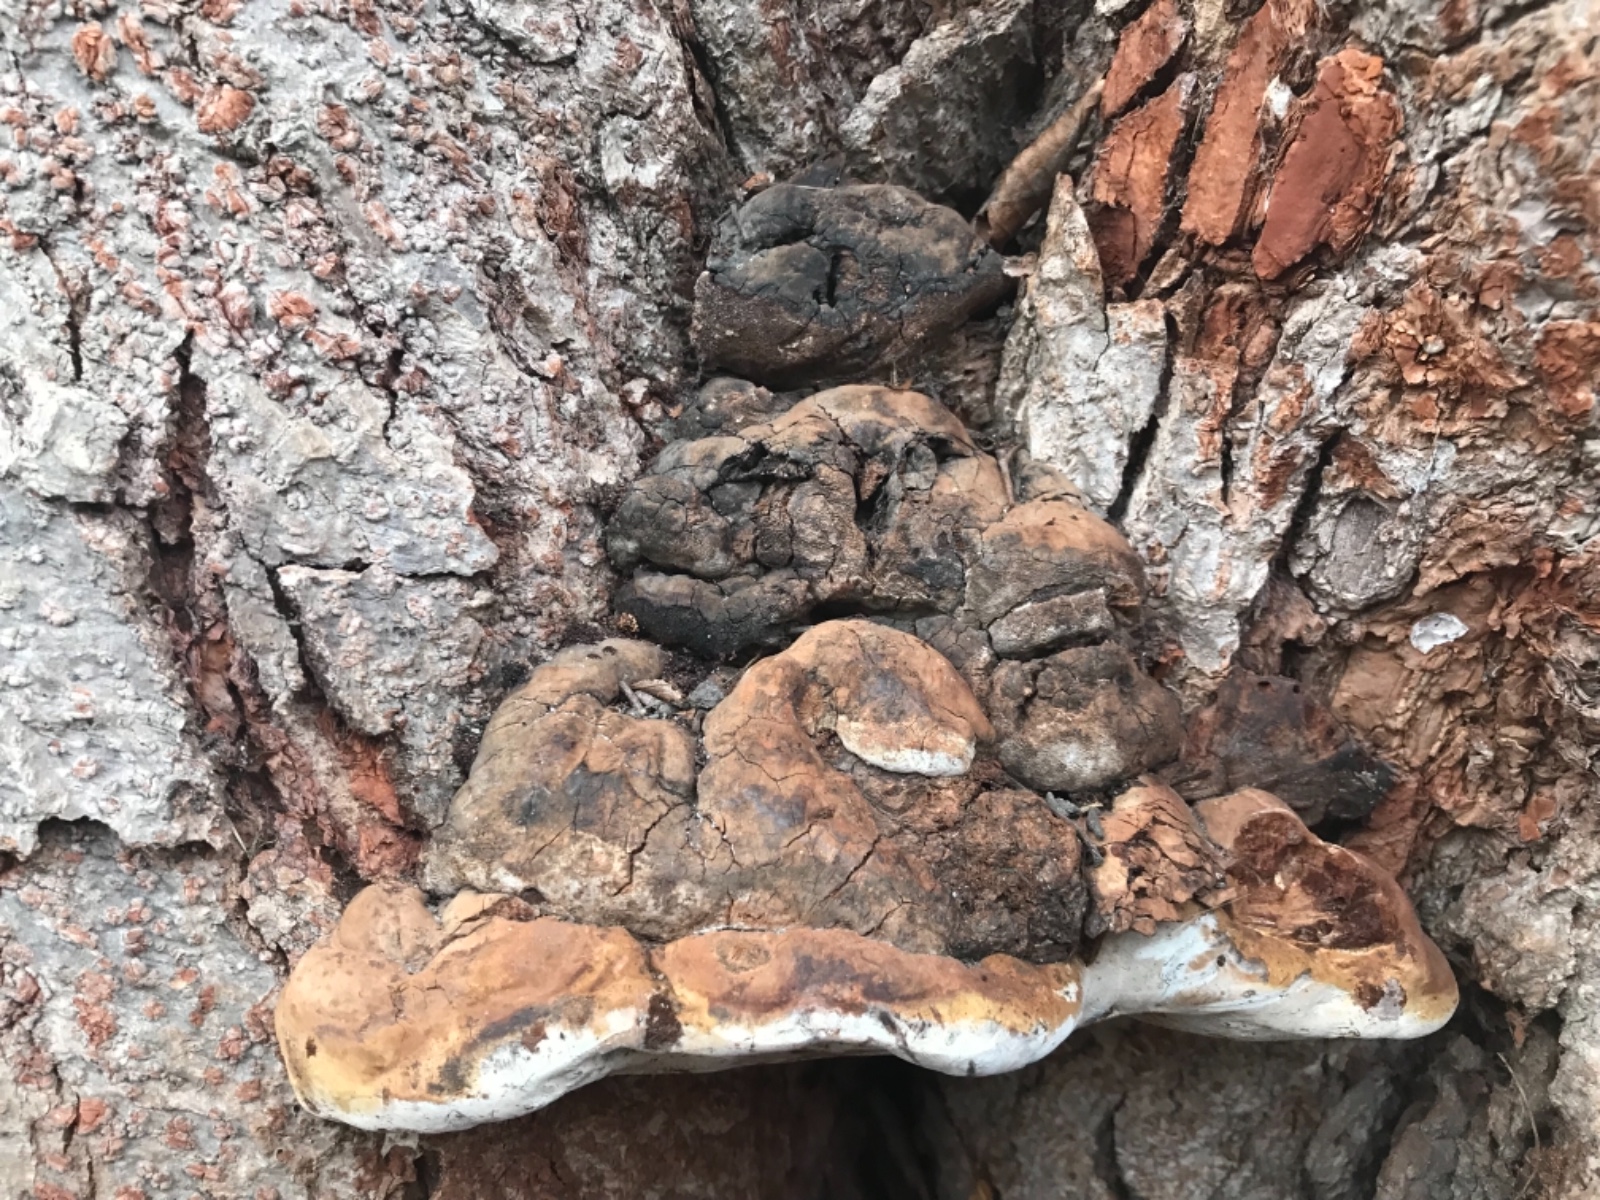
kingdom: Fungi
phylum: Basidiomycota
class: Agaricomycetes
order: Polyporales
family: Polyporaceae
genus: Ganoderma
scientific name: Ganoderma adspersum
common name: grov lakporesvamp
